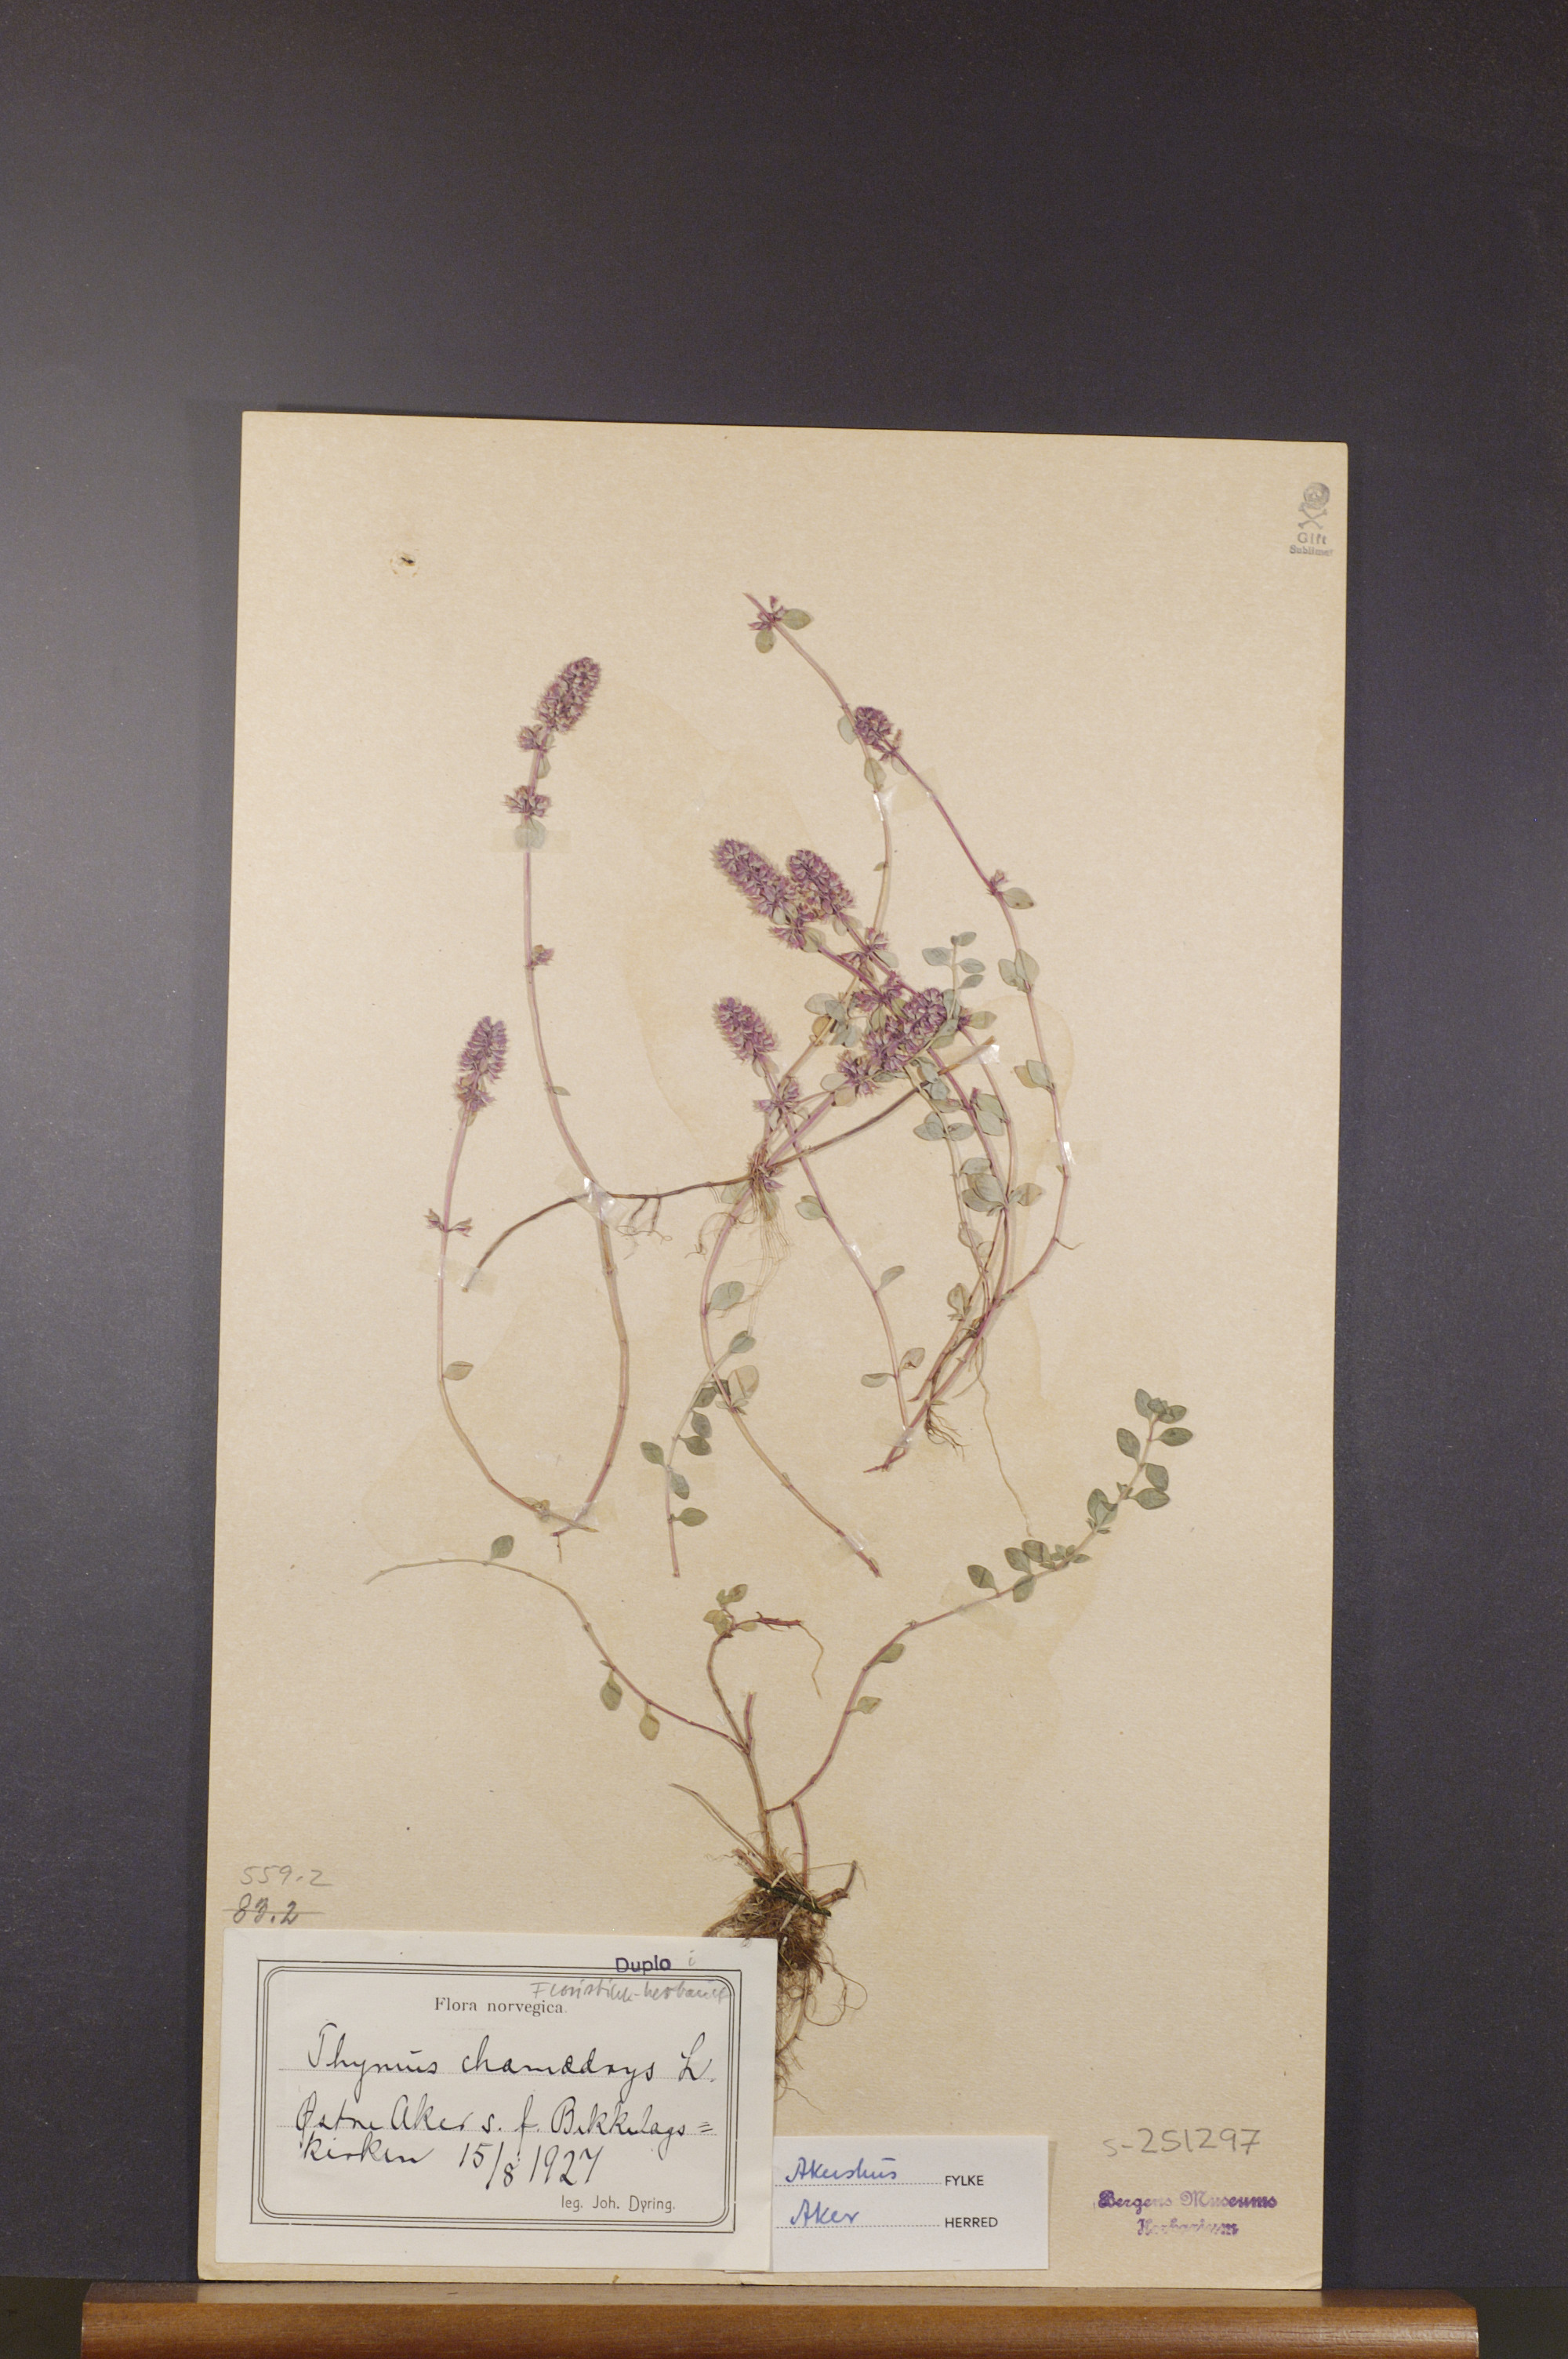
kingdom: Plantae
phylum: Tracheophyta
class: Magnoliopsida
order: Lamiales
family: Lamiaceae
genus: Thymus
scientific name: Thymus pulegioides
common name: Large thyme
